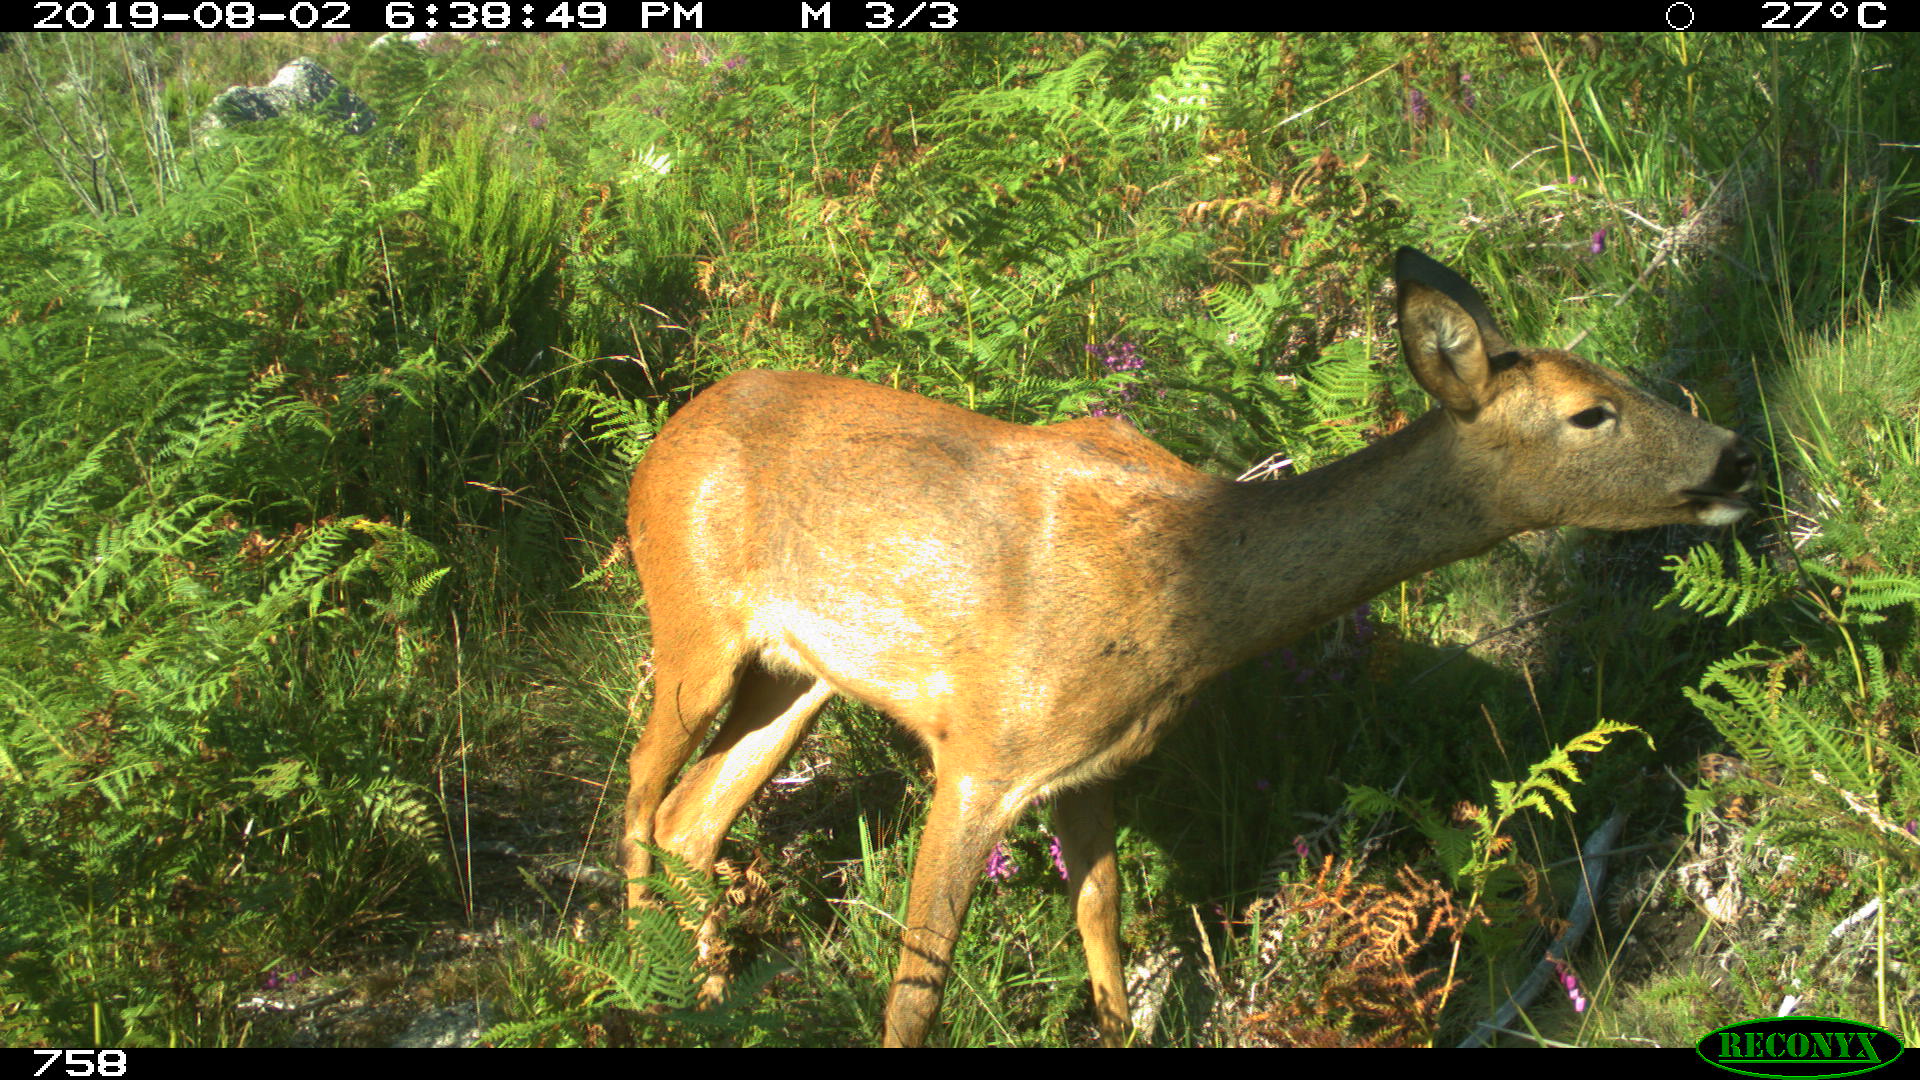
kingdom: Animalia
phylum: Chordata
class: Mammalia
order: Artiodactyla
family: Cervidae
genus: Capreolus
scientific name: Capreolus capreolus
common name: Western roe deer
